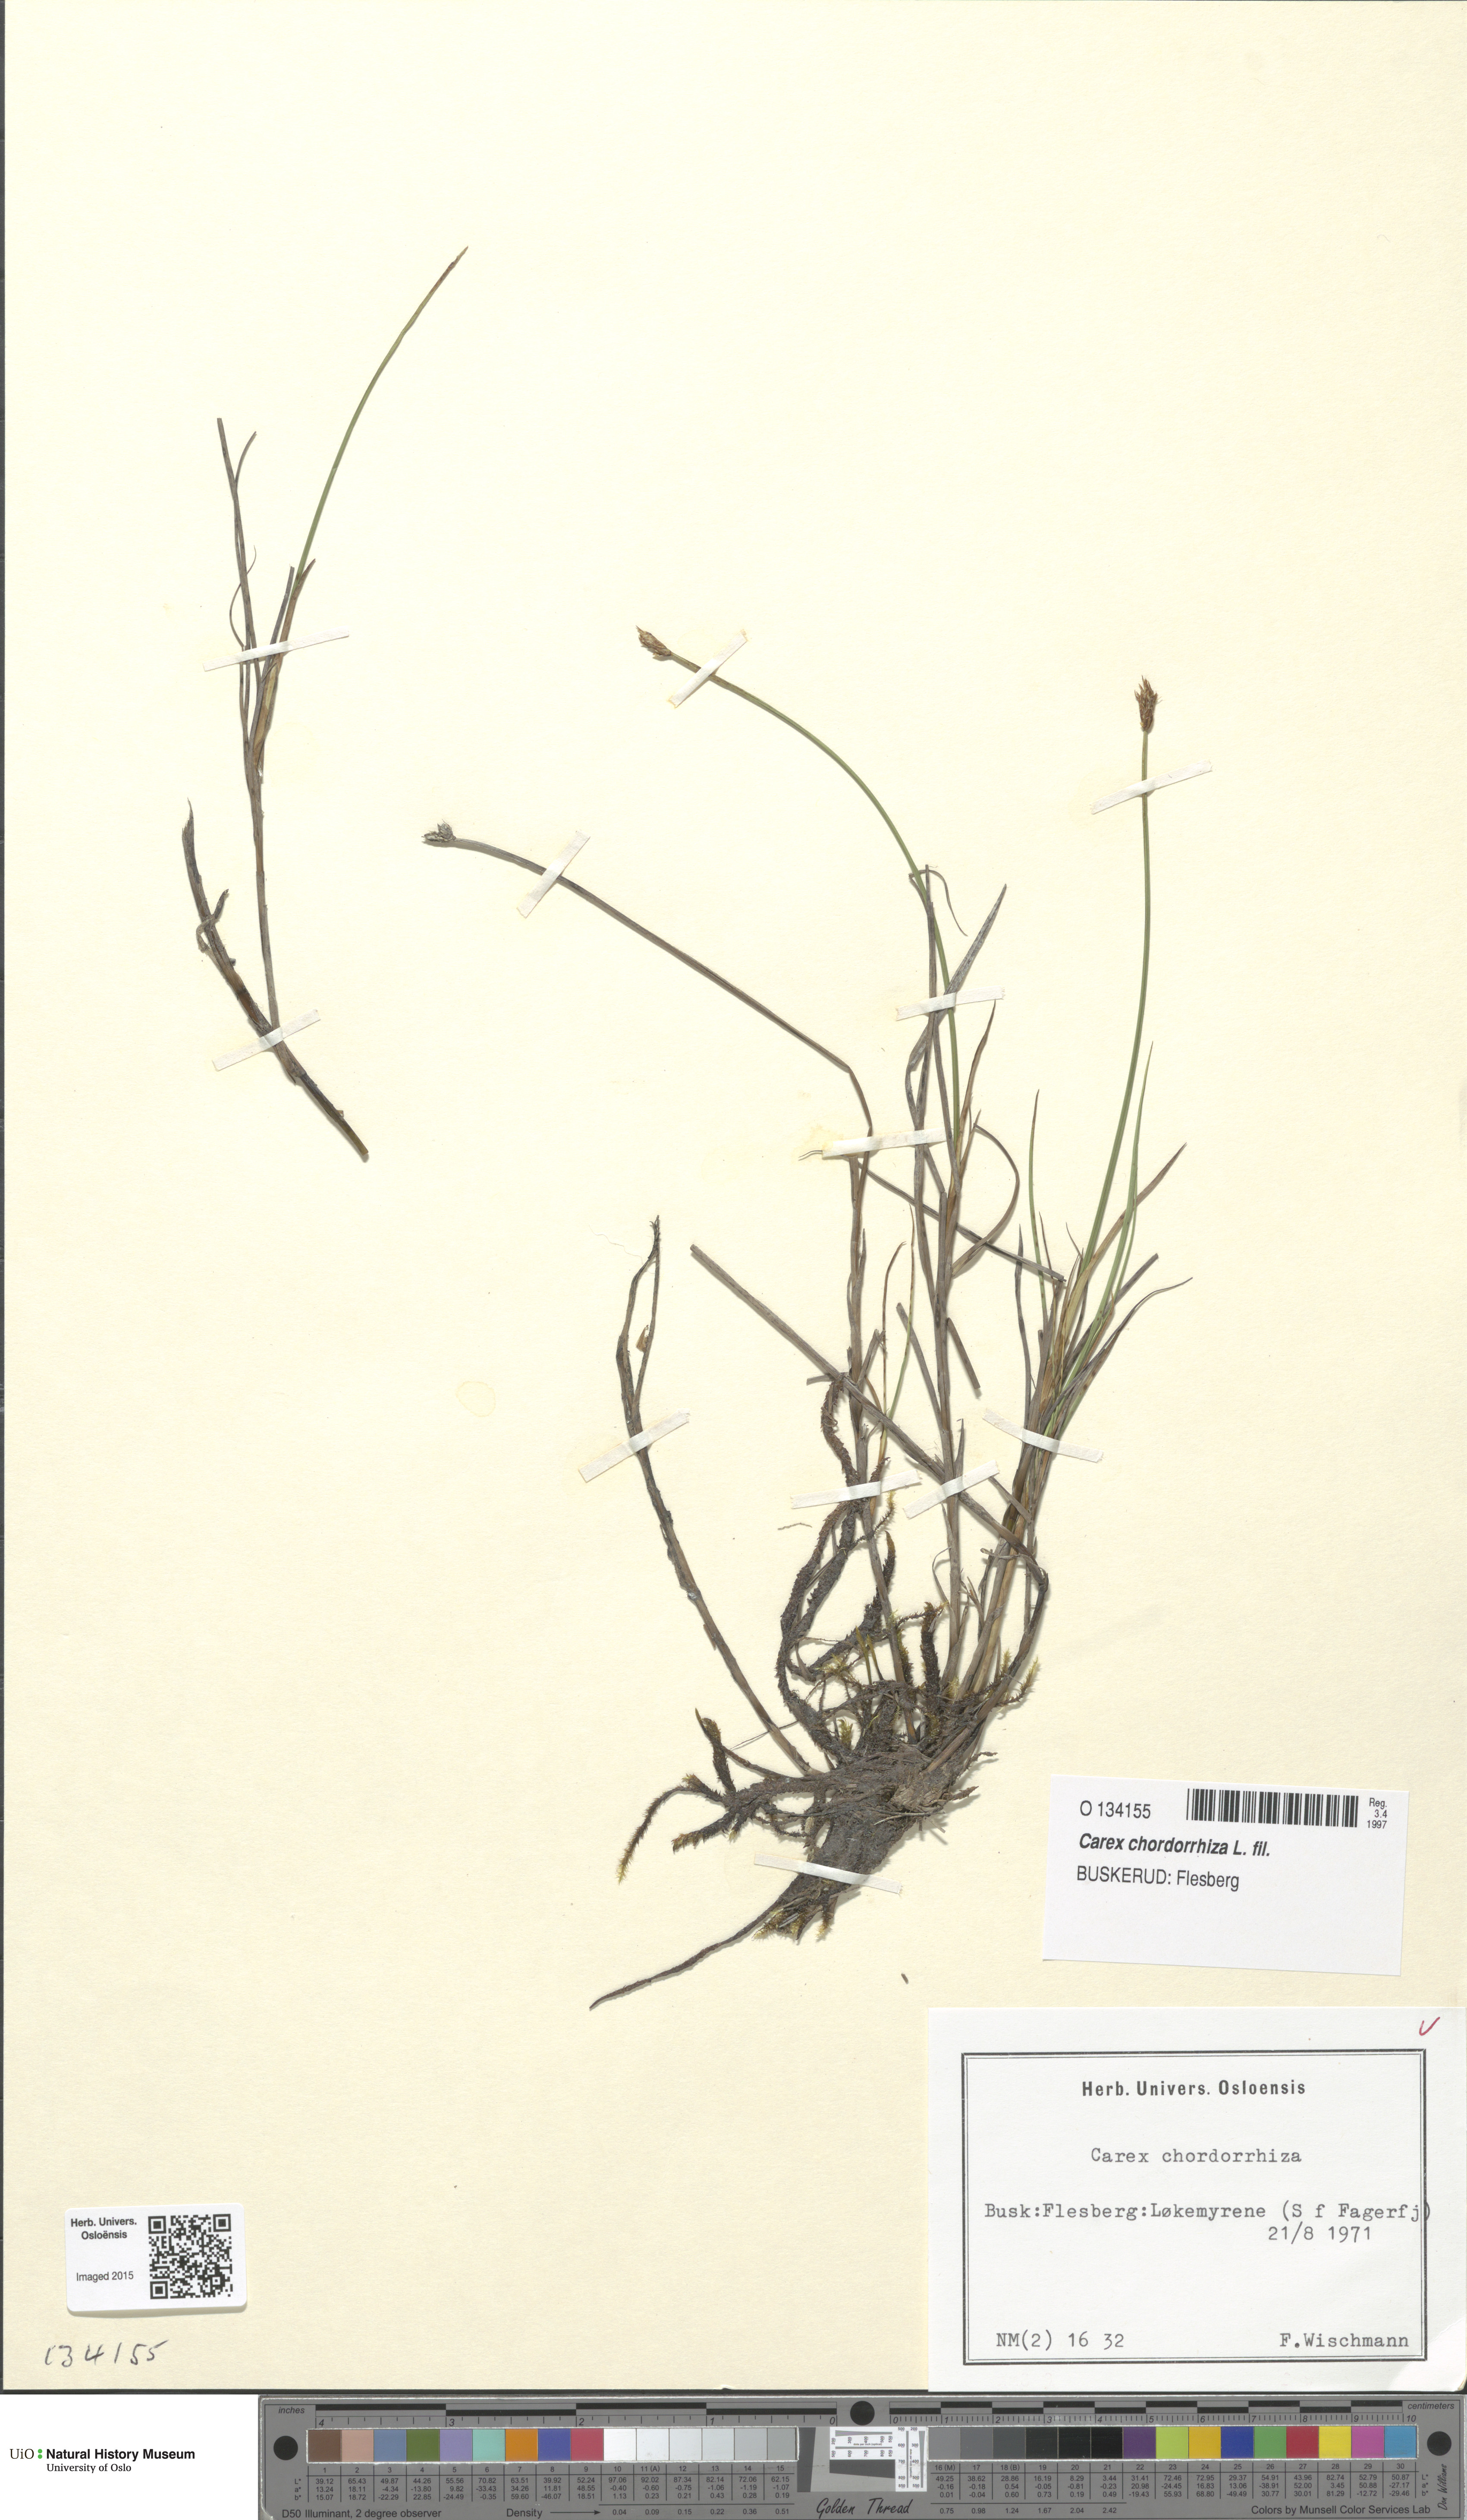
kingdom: Plantae
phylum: Tracheophyta
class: Liliopsida
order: Poales
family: Cyperaceae
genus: Carex
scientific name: Carex chordorrhiza
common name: String sedge
